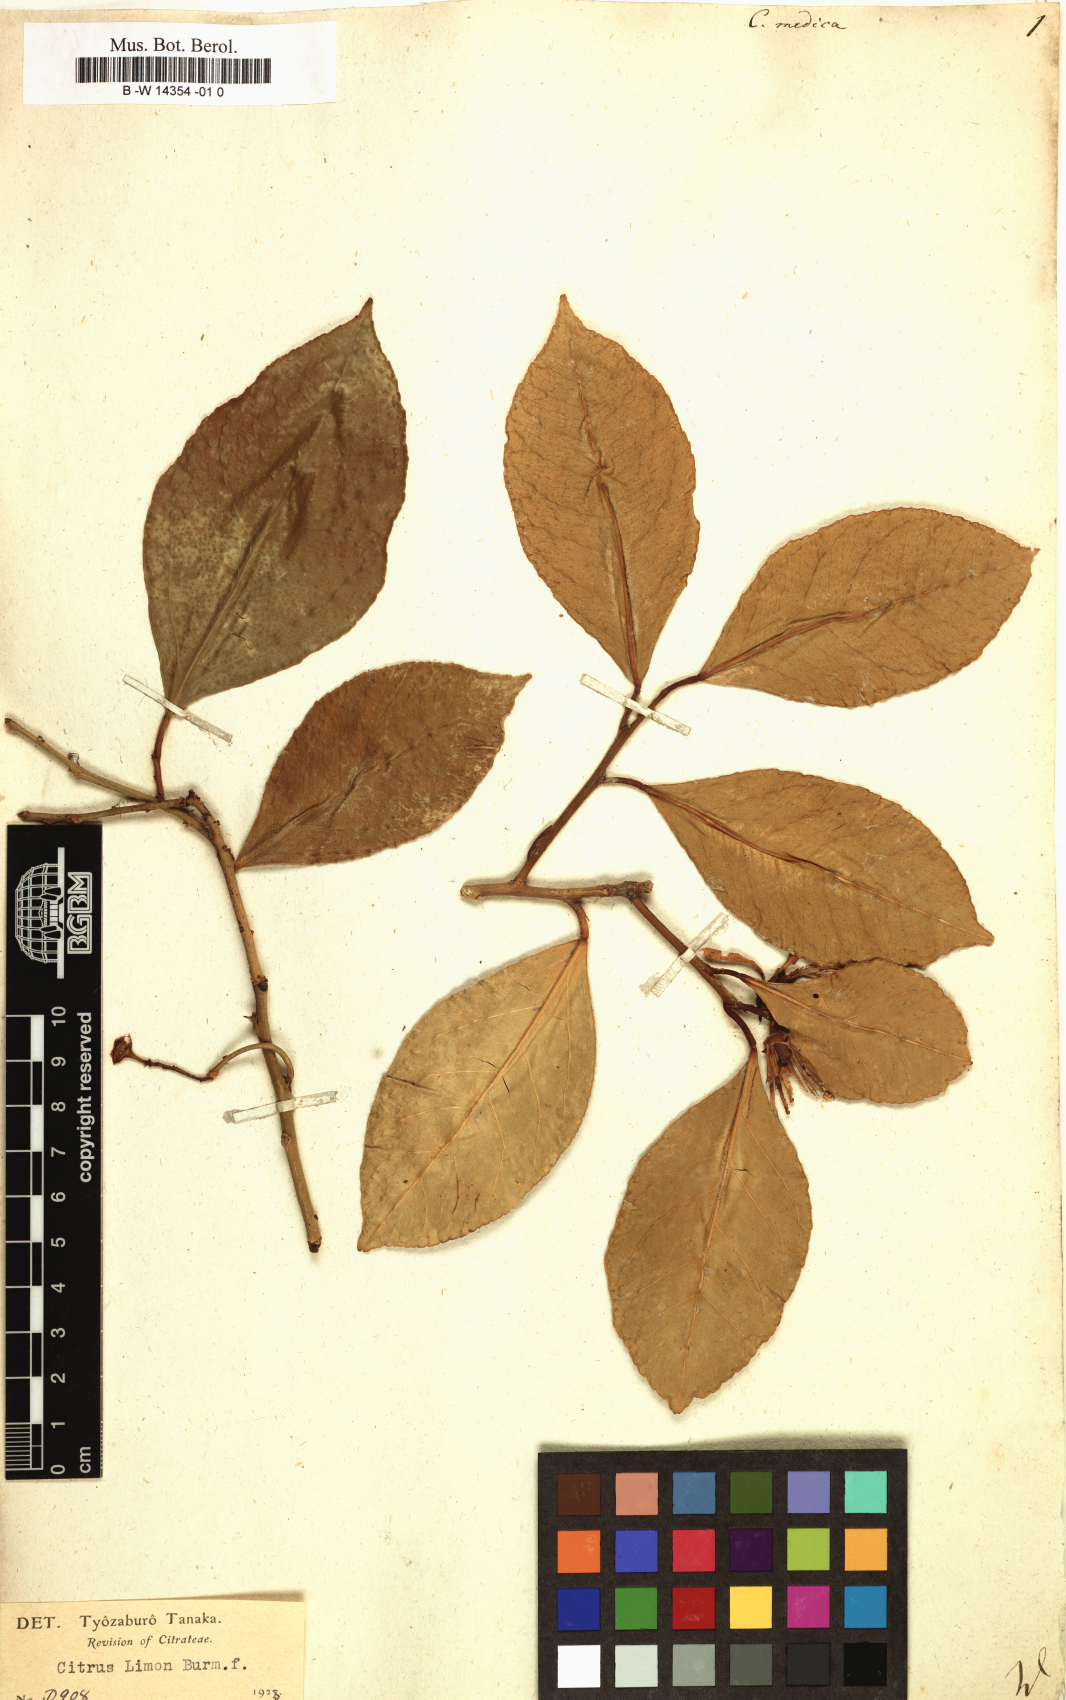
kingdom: Plantae
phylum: Tracheophyta
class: Magnoliopsida
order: Sapindales
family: Rutaceae
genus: Citrus
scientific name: Citrus medica
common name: Citron
